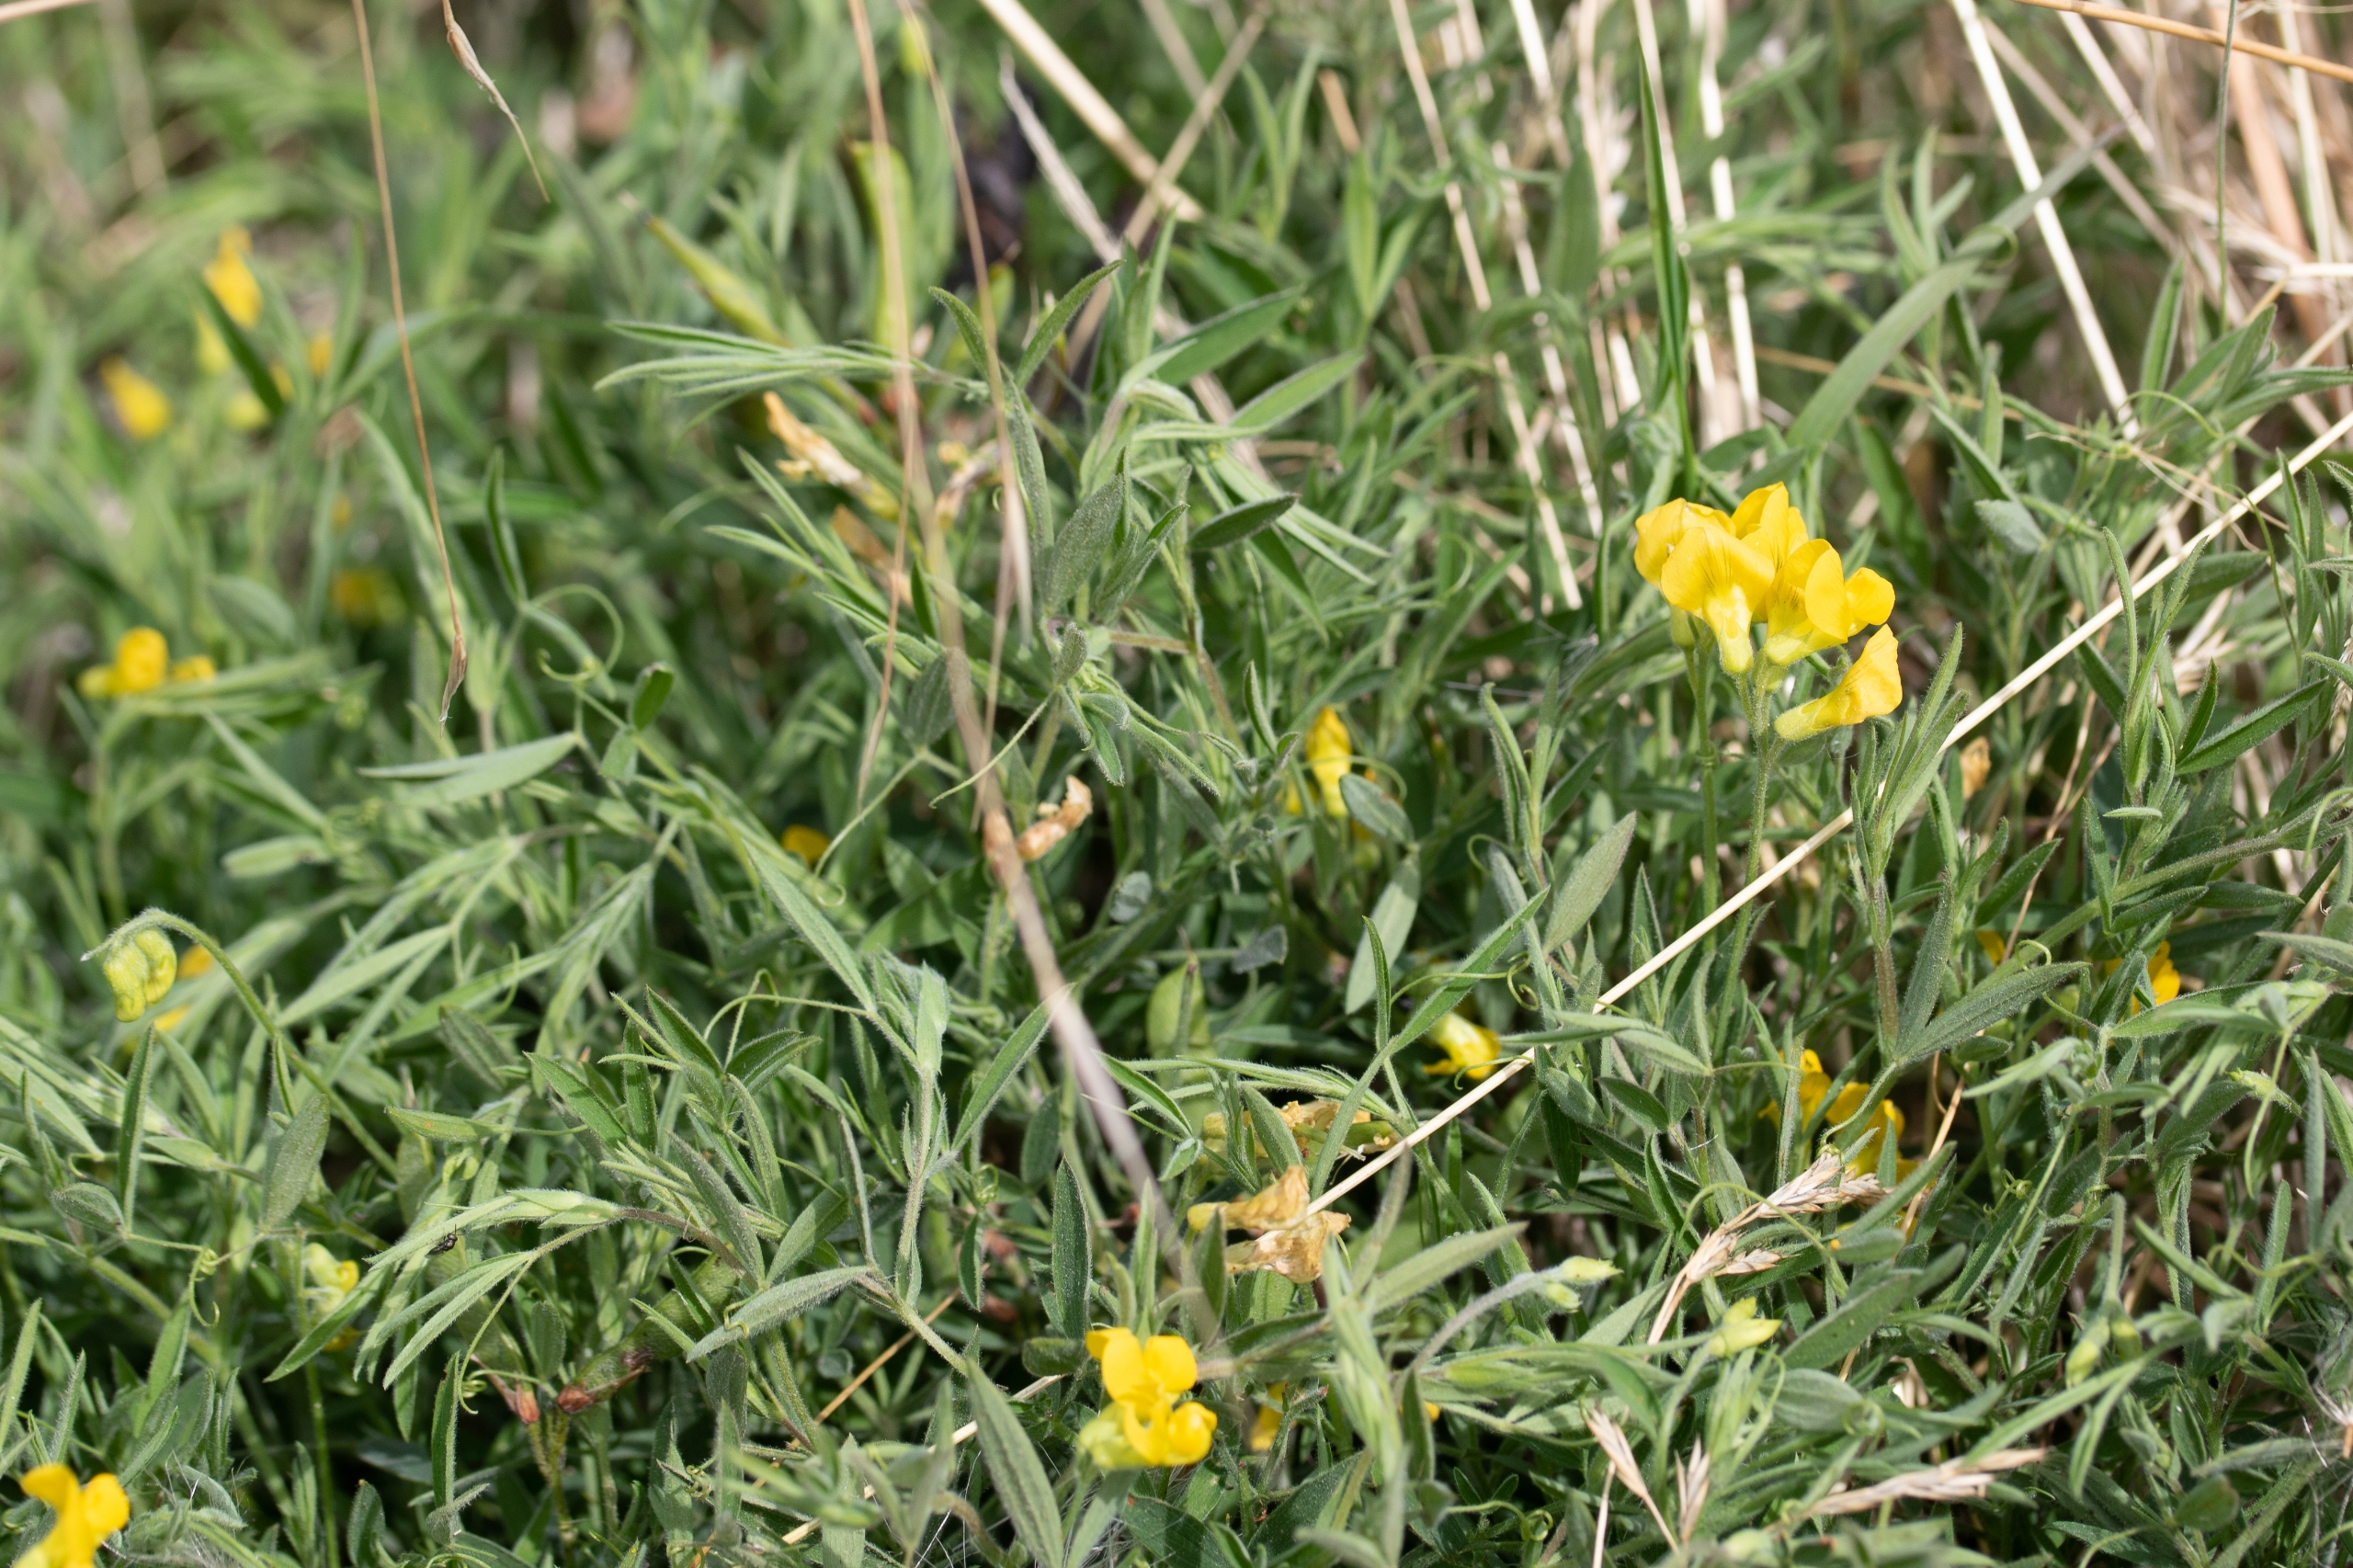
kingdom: Plantae
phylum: Tracheophyta
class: Magnoliopsida
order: Fabales
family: Fabaceae
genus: Lathyrus
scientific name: Lathyrus pratensis
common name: Gul fladbælg
